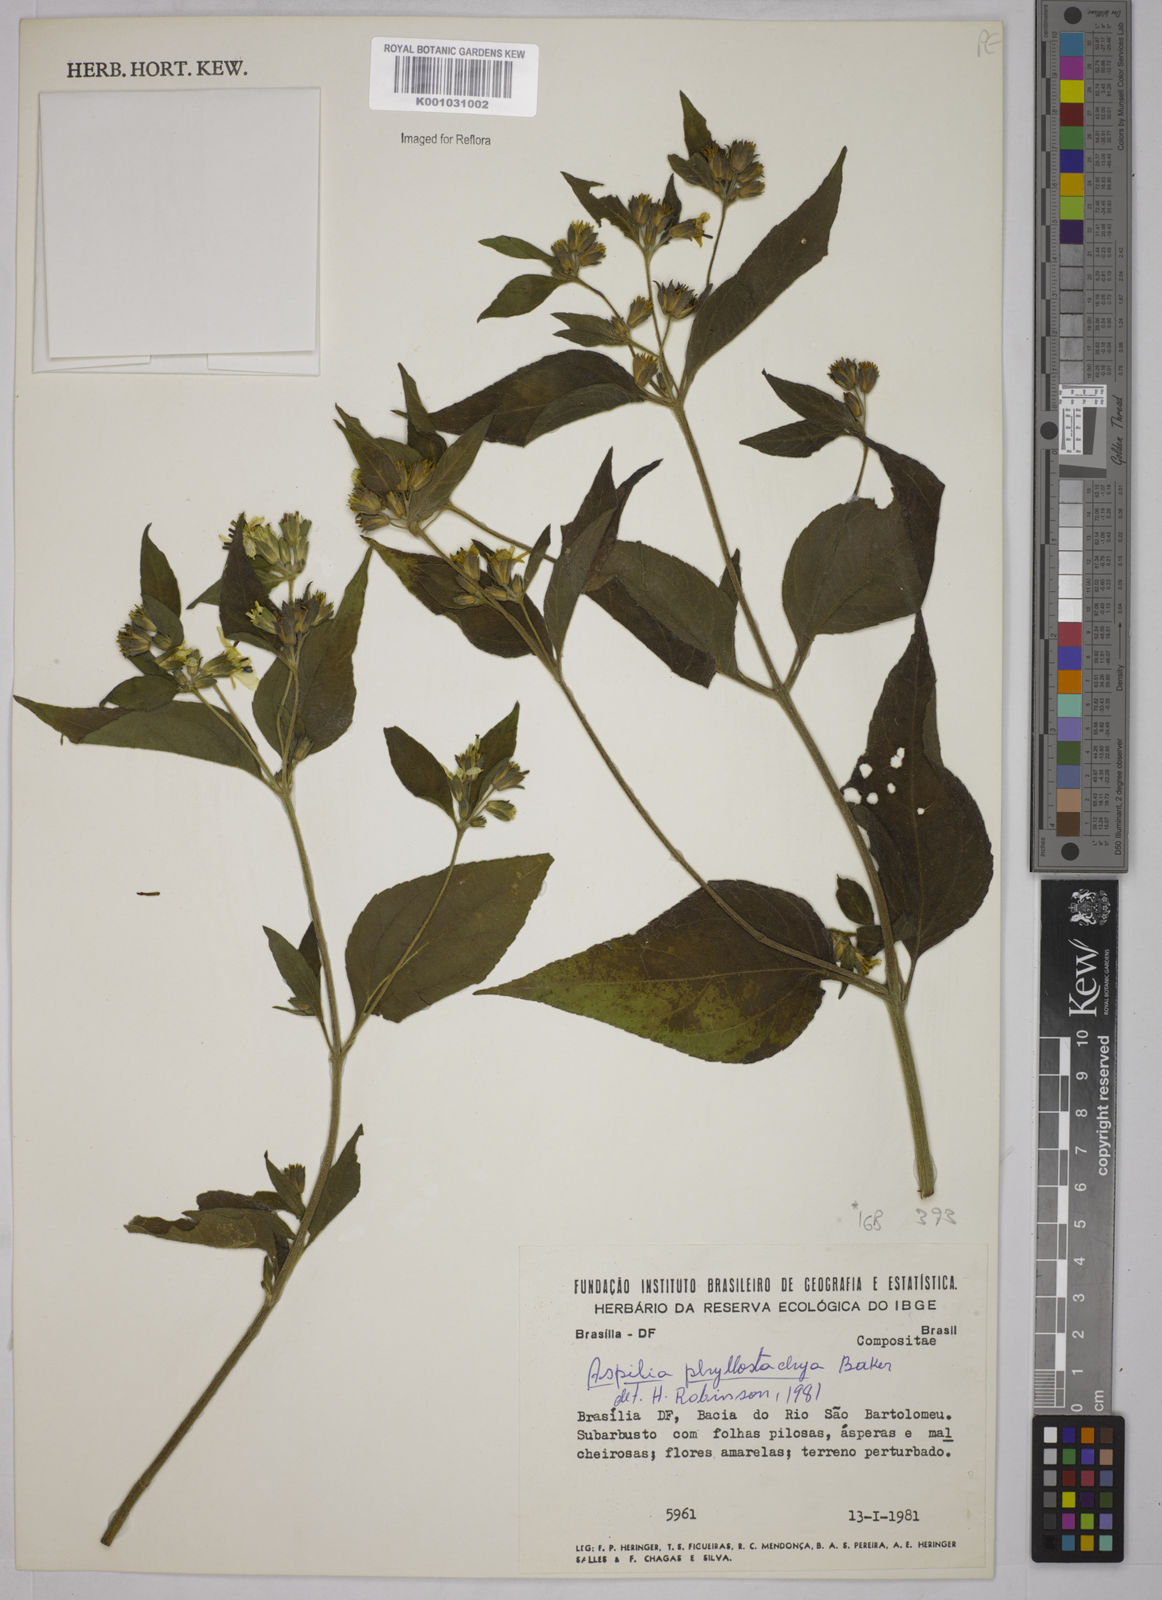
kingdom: Plantae
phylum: Tracheophyta
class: Magnoliopsida
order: Asterales
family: Asteraceae
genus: Wedelia
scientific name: Wedelia phyllostachya
